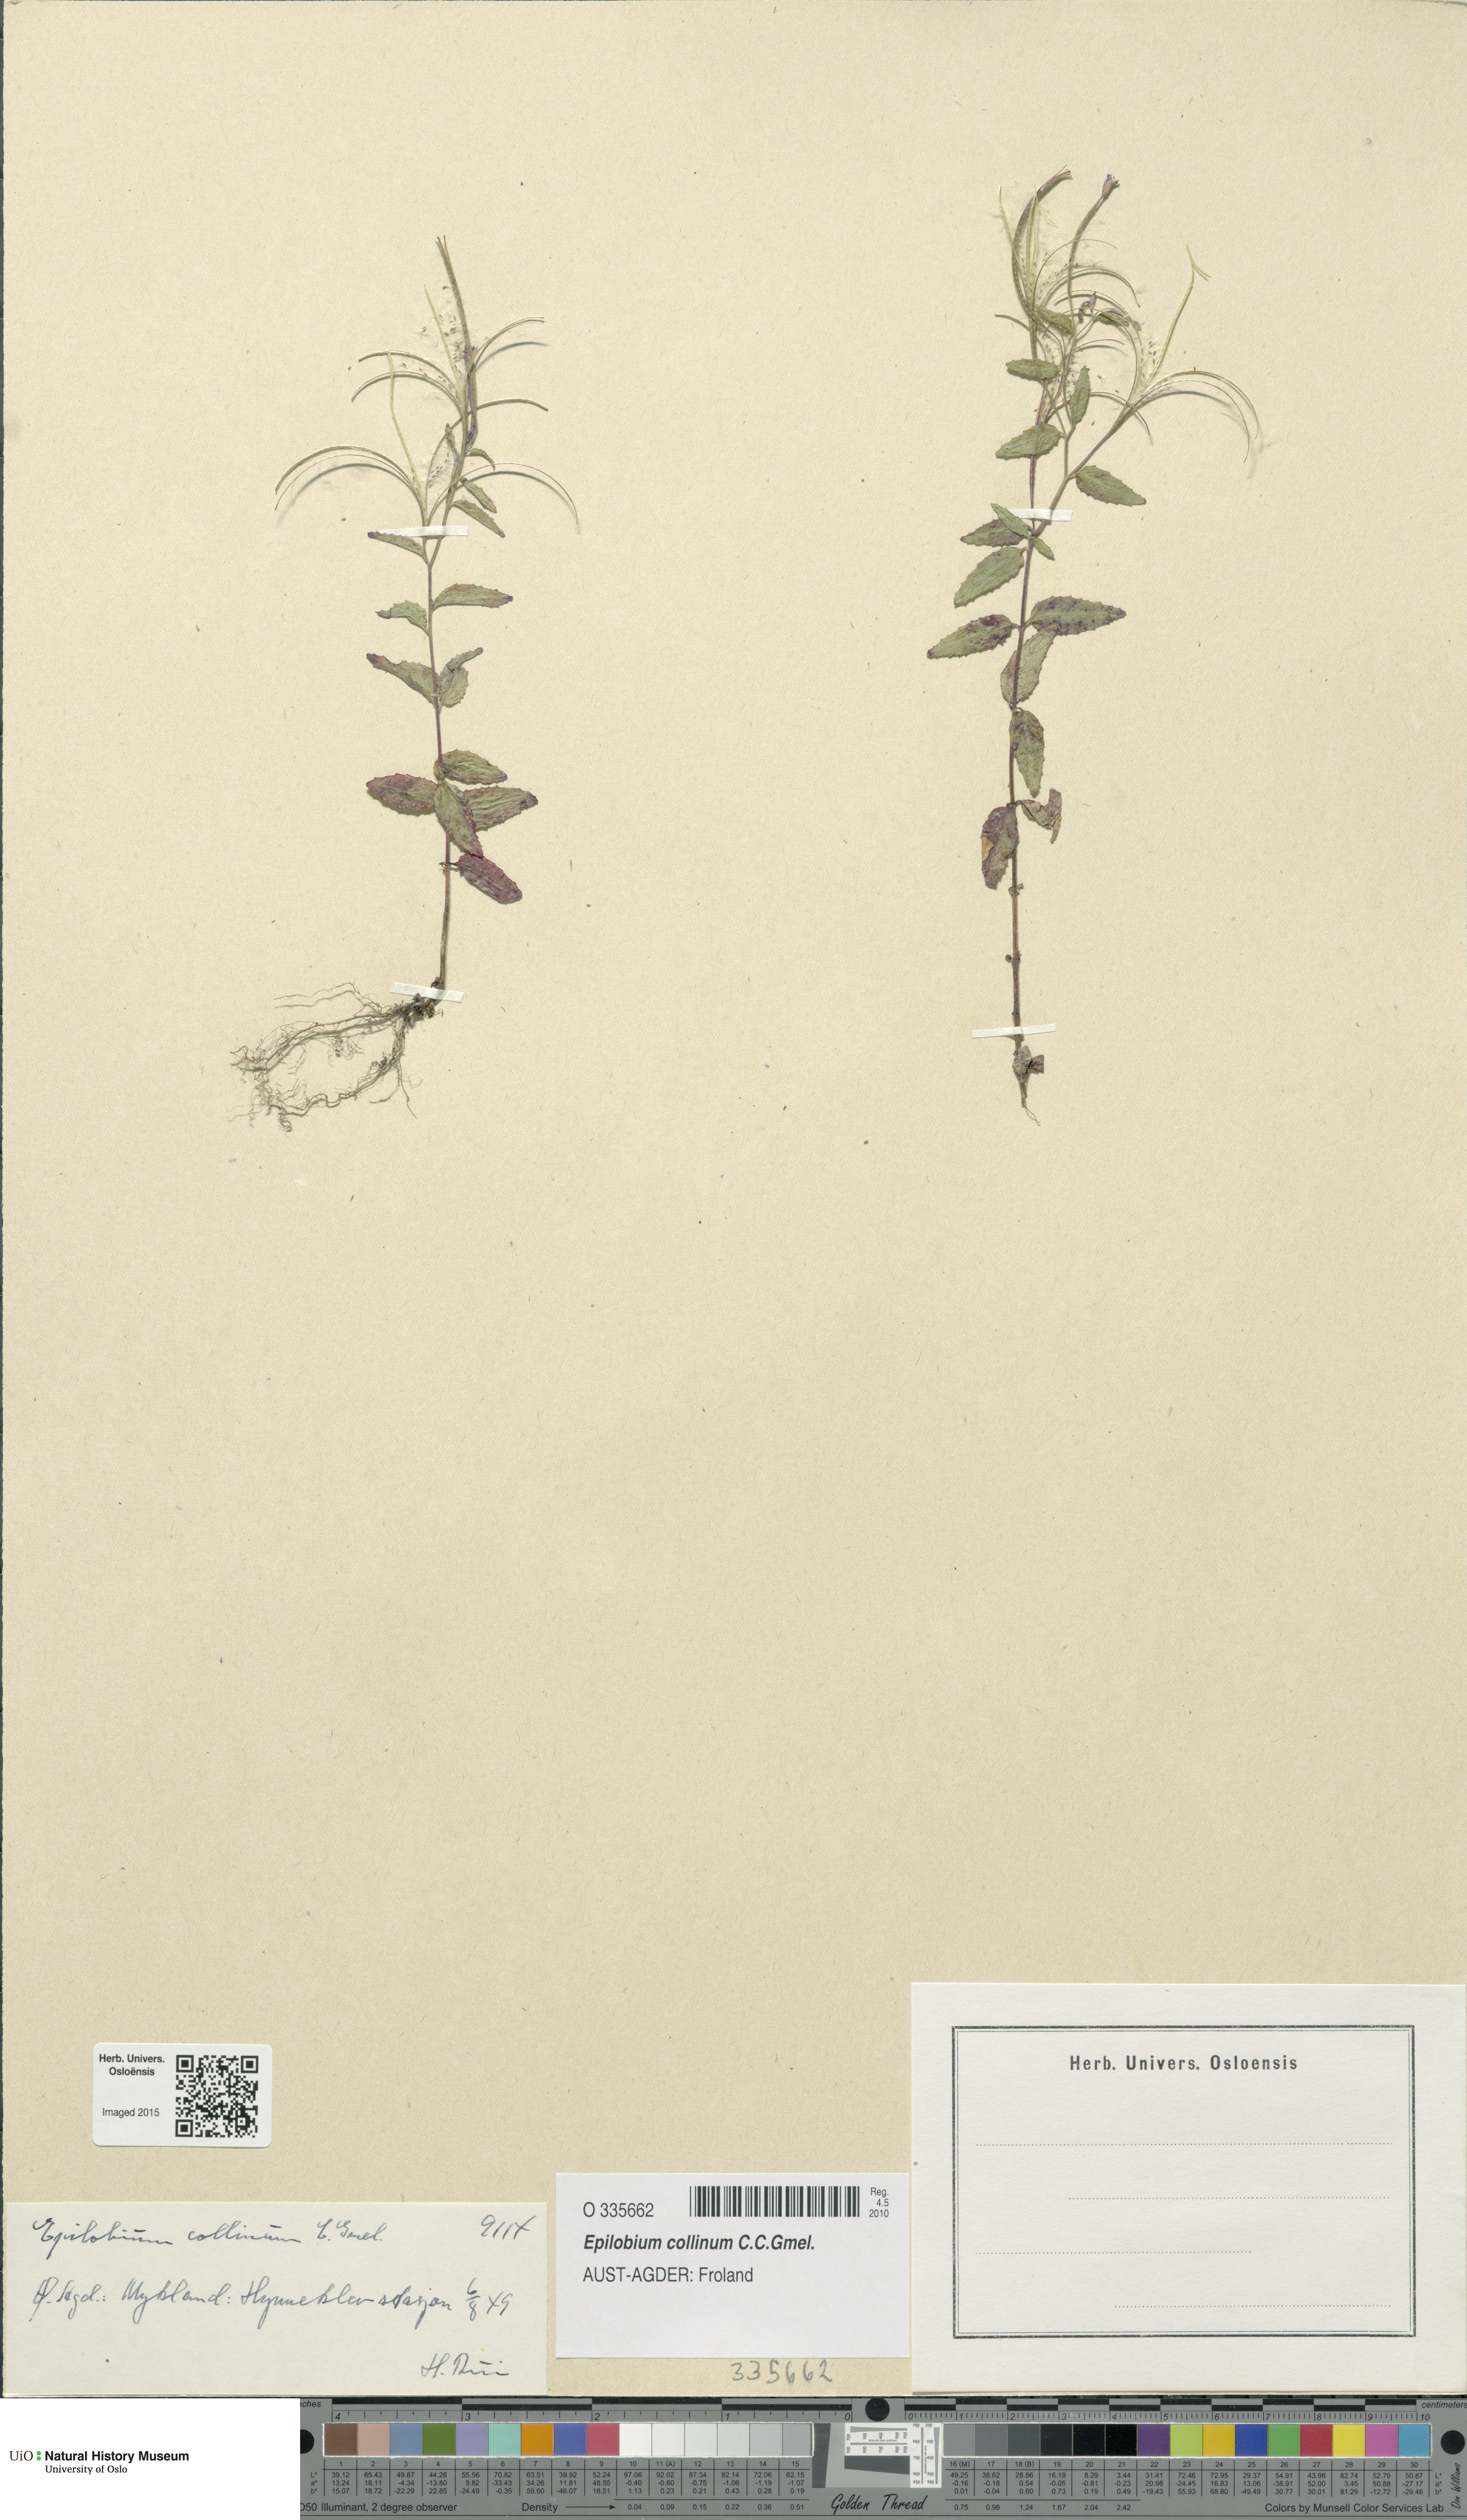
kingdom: Plantae
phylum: Tracheophyta
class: Magnoliopsida
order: Myrtales
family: Onagraceae
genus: Epilobium
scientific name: Epilobium collinum
